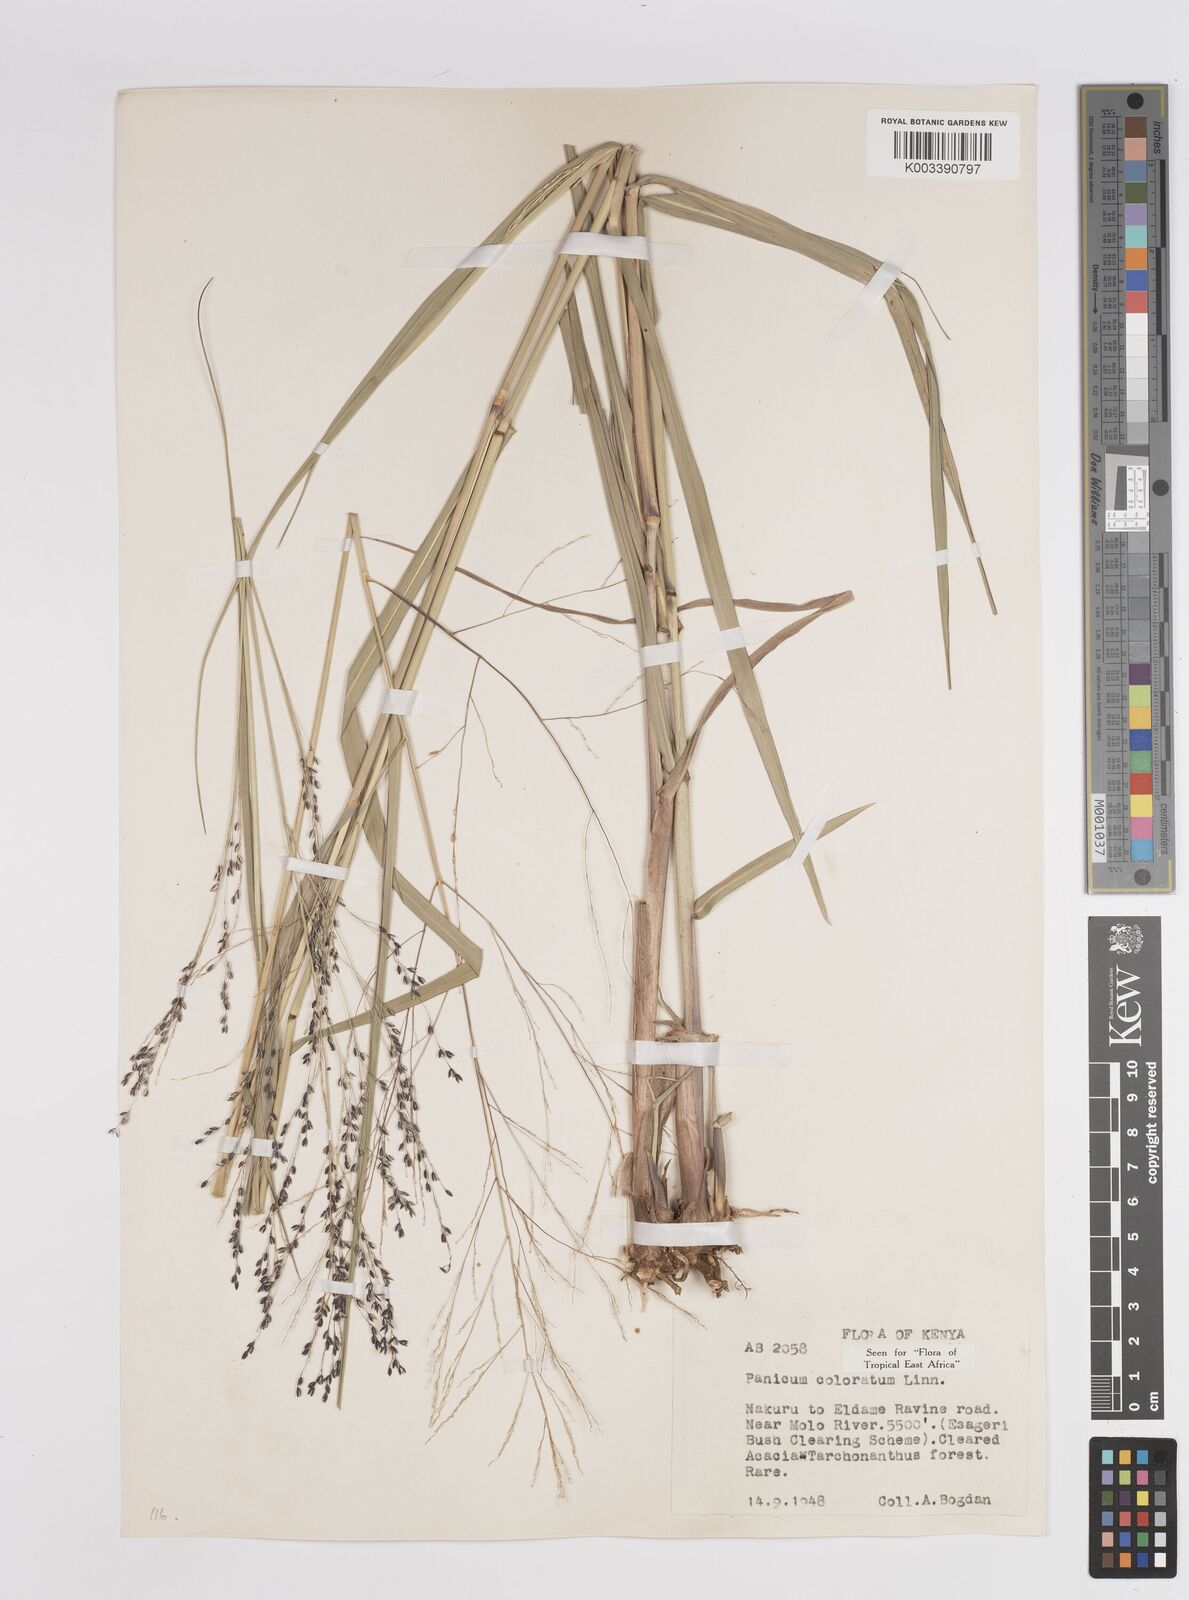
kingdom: Plantae
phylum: Tracheophyta
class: Liliopsida
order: Poales
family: Poaceae
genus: Panicum
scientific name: Panicum coloratum
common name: Kleingrass
